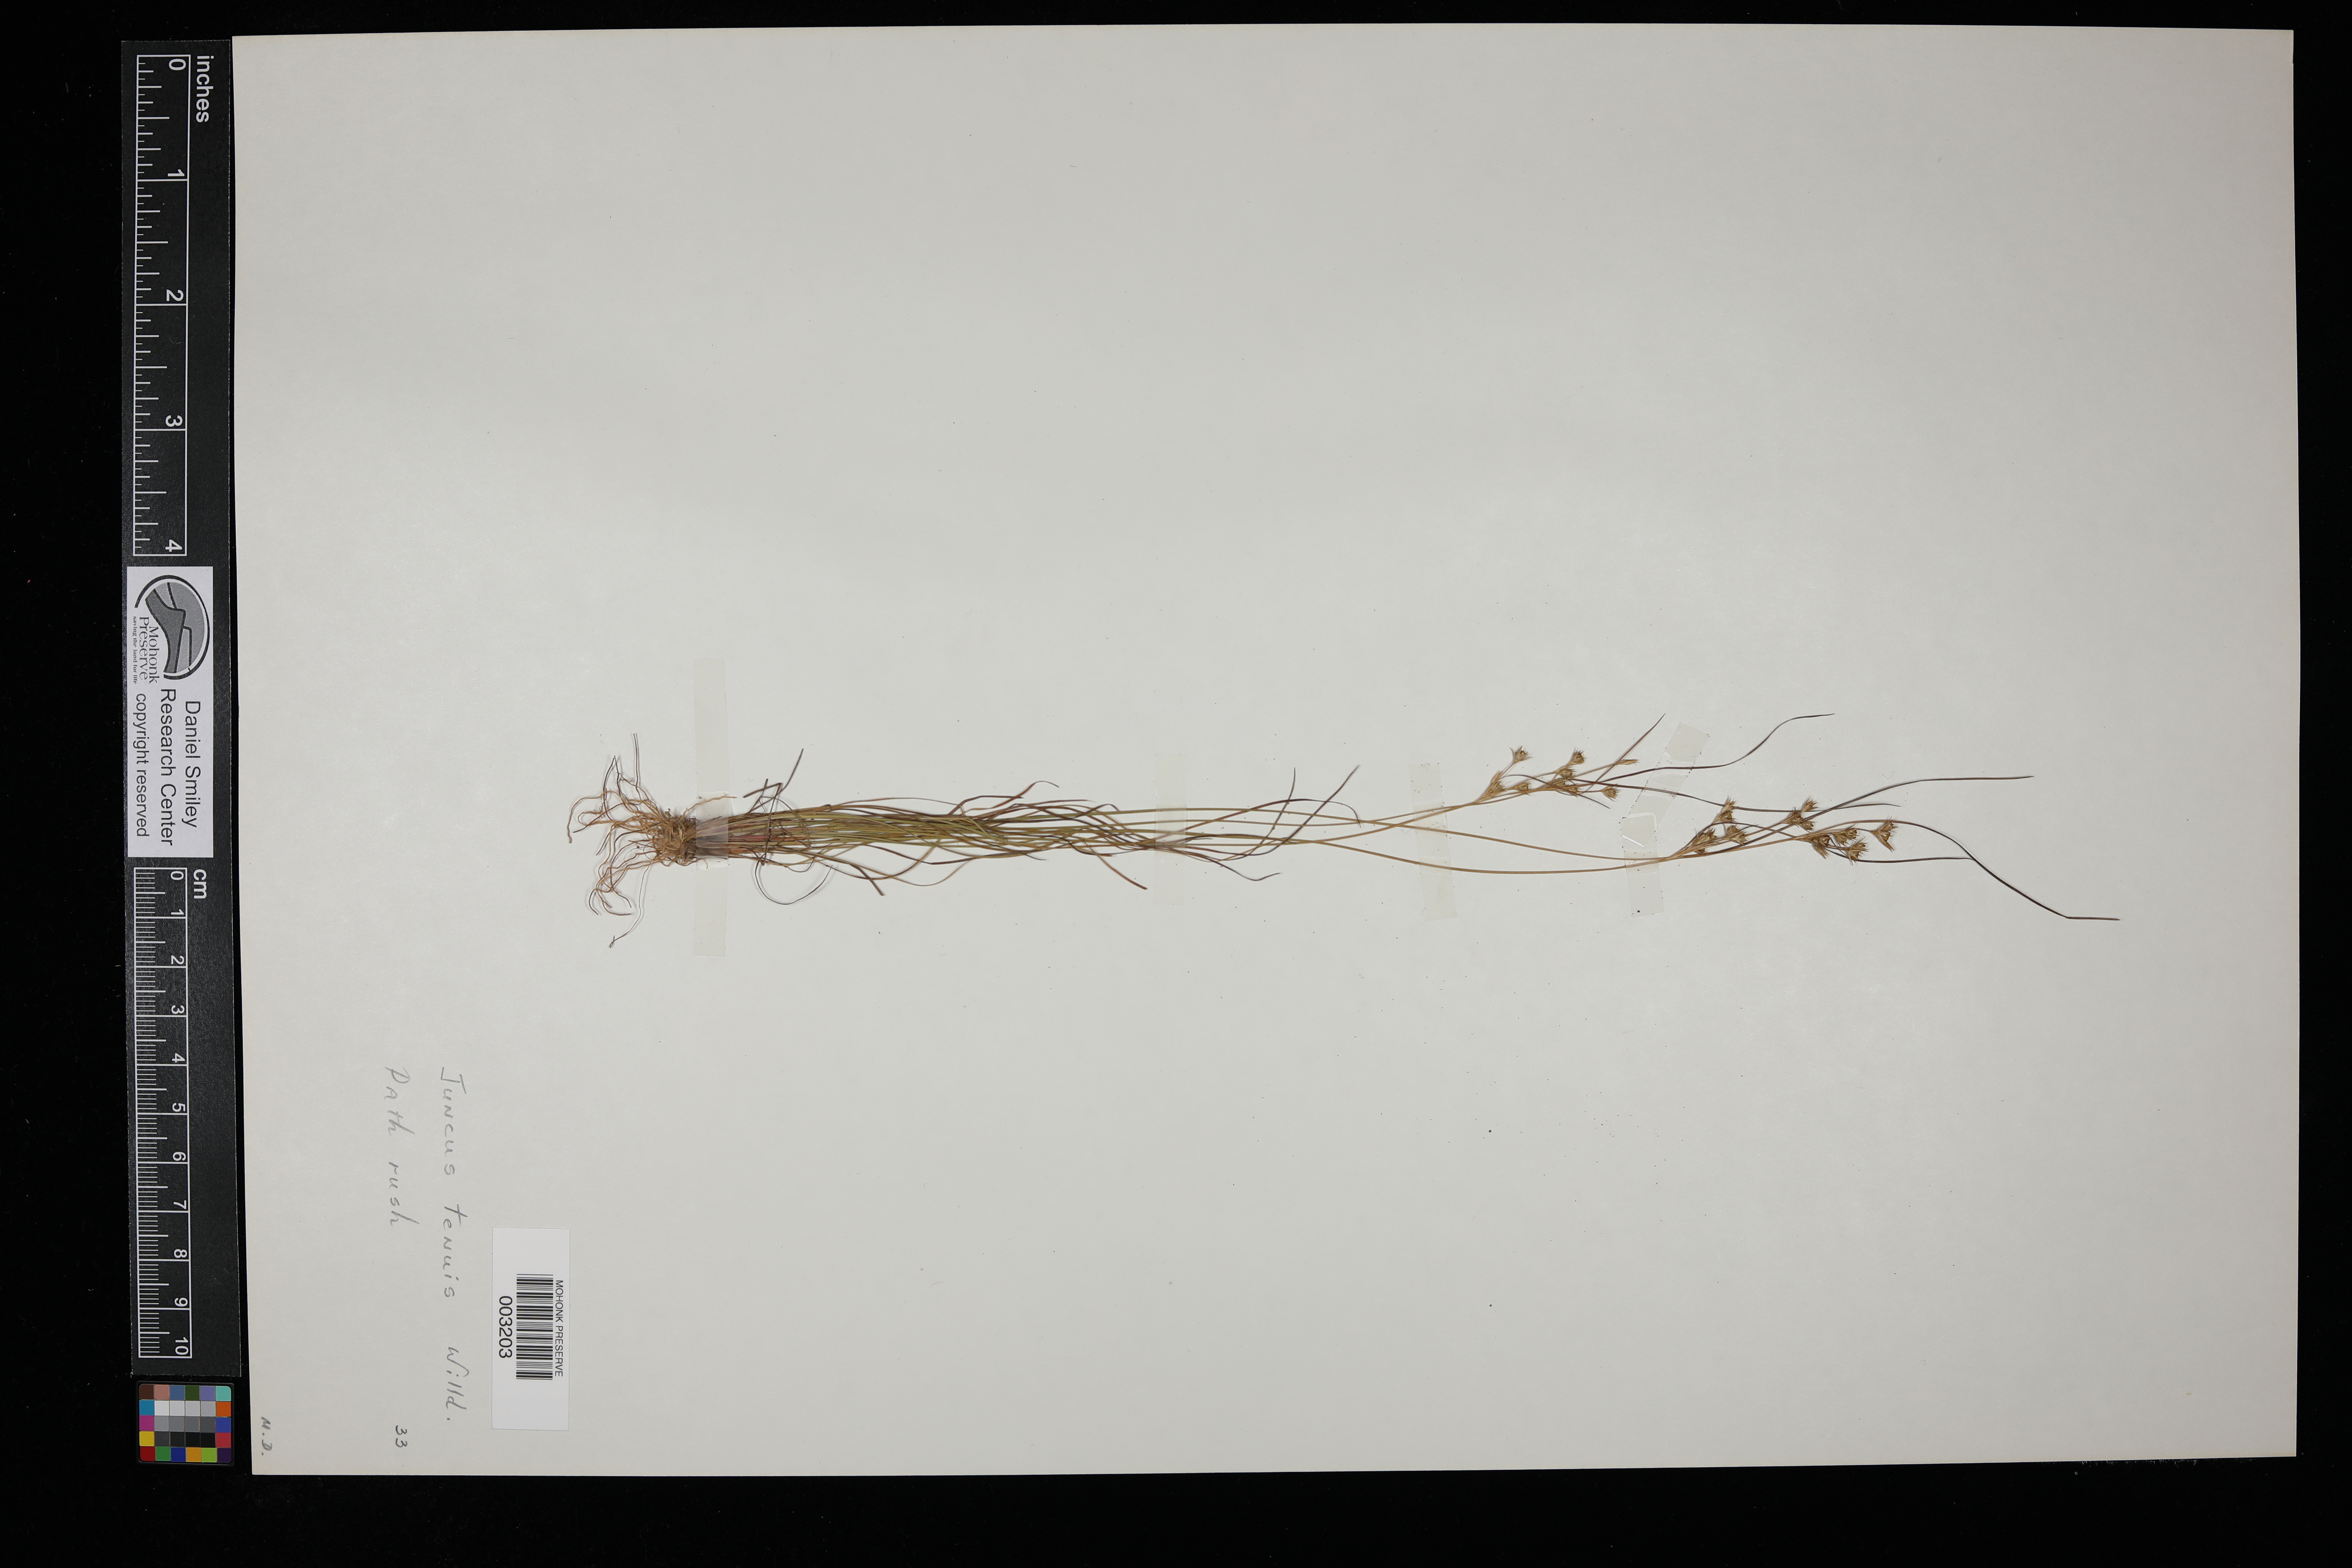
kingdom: Plantae
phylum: Tracheophyta
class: Liliopsida
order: Poales
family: Juncaceae
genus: Juncus
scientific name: Juncus tenuis
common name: Slender rush
